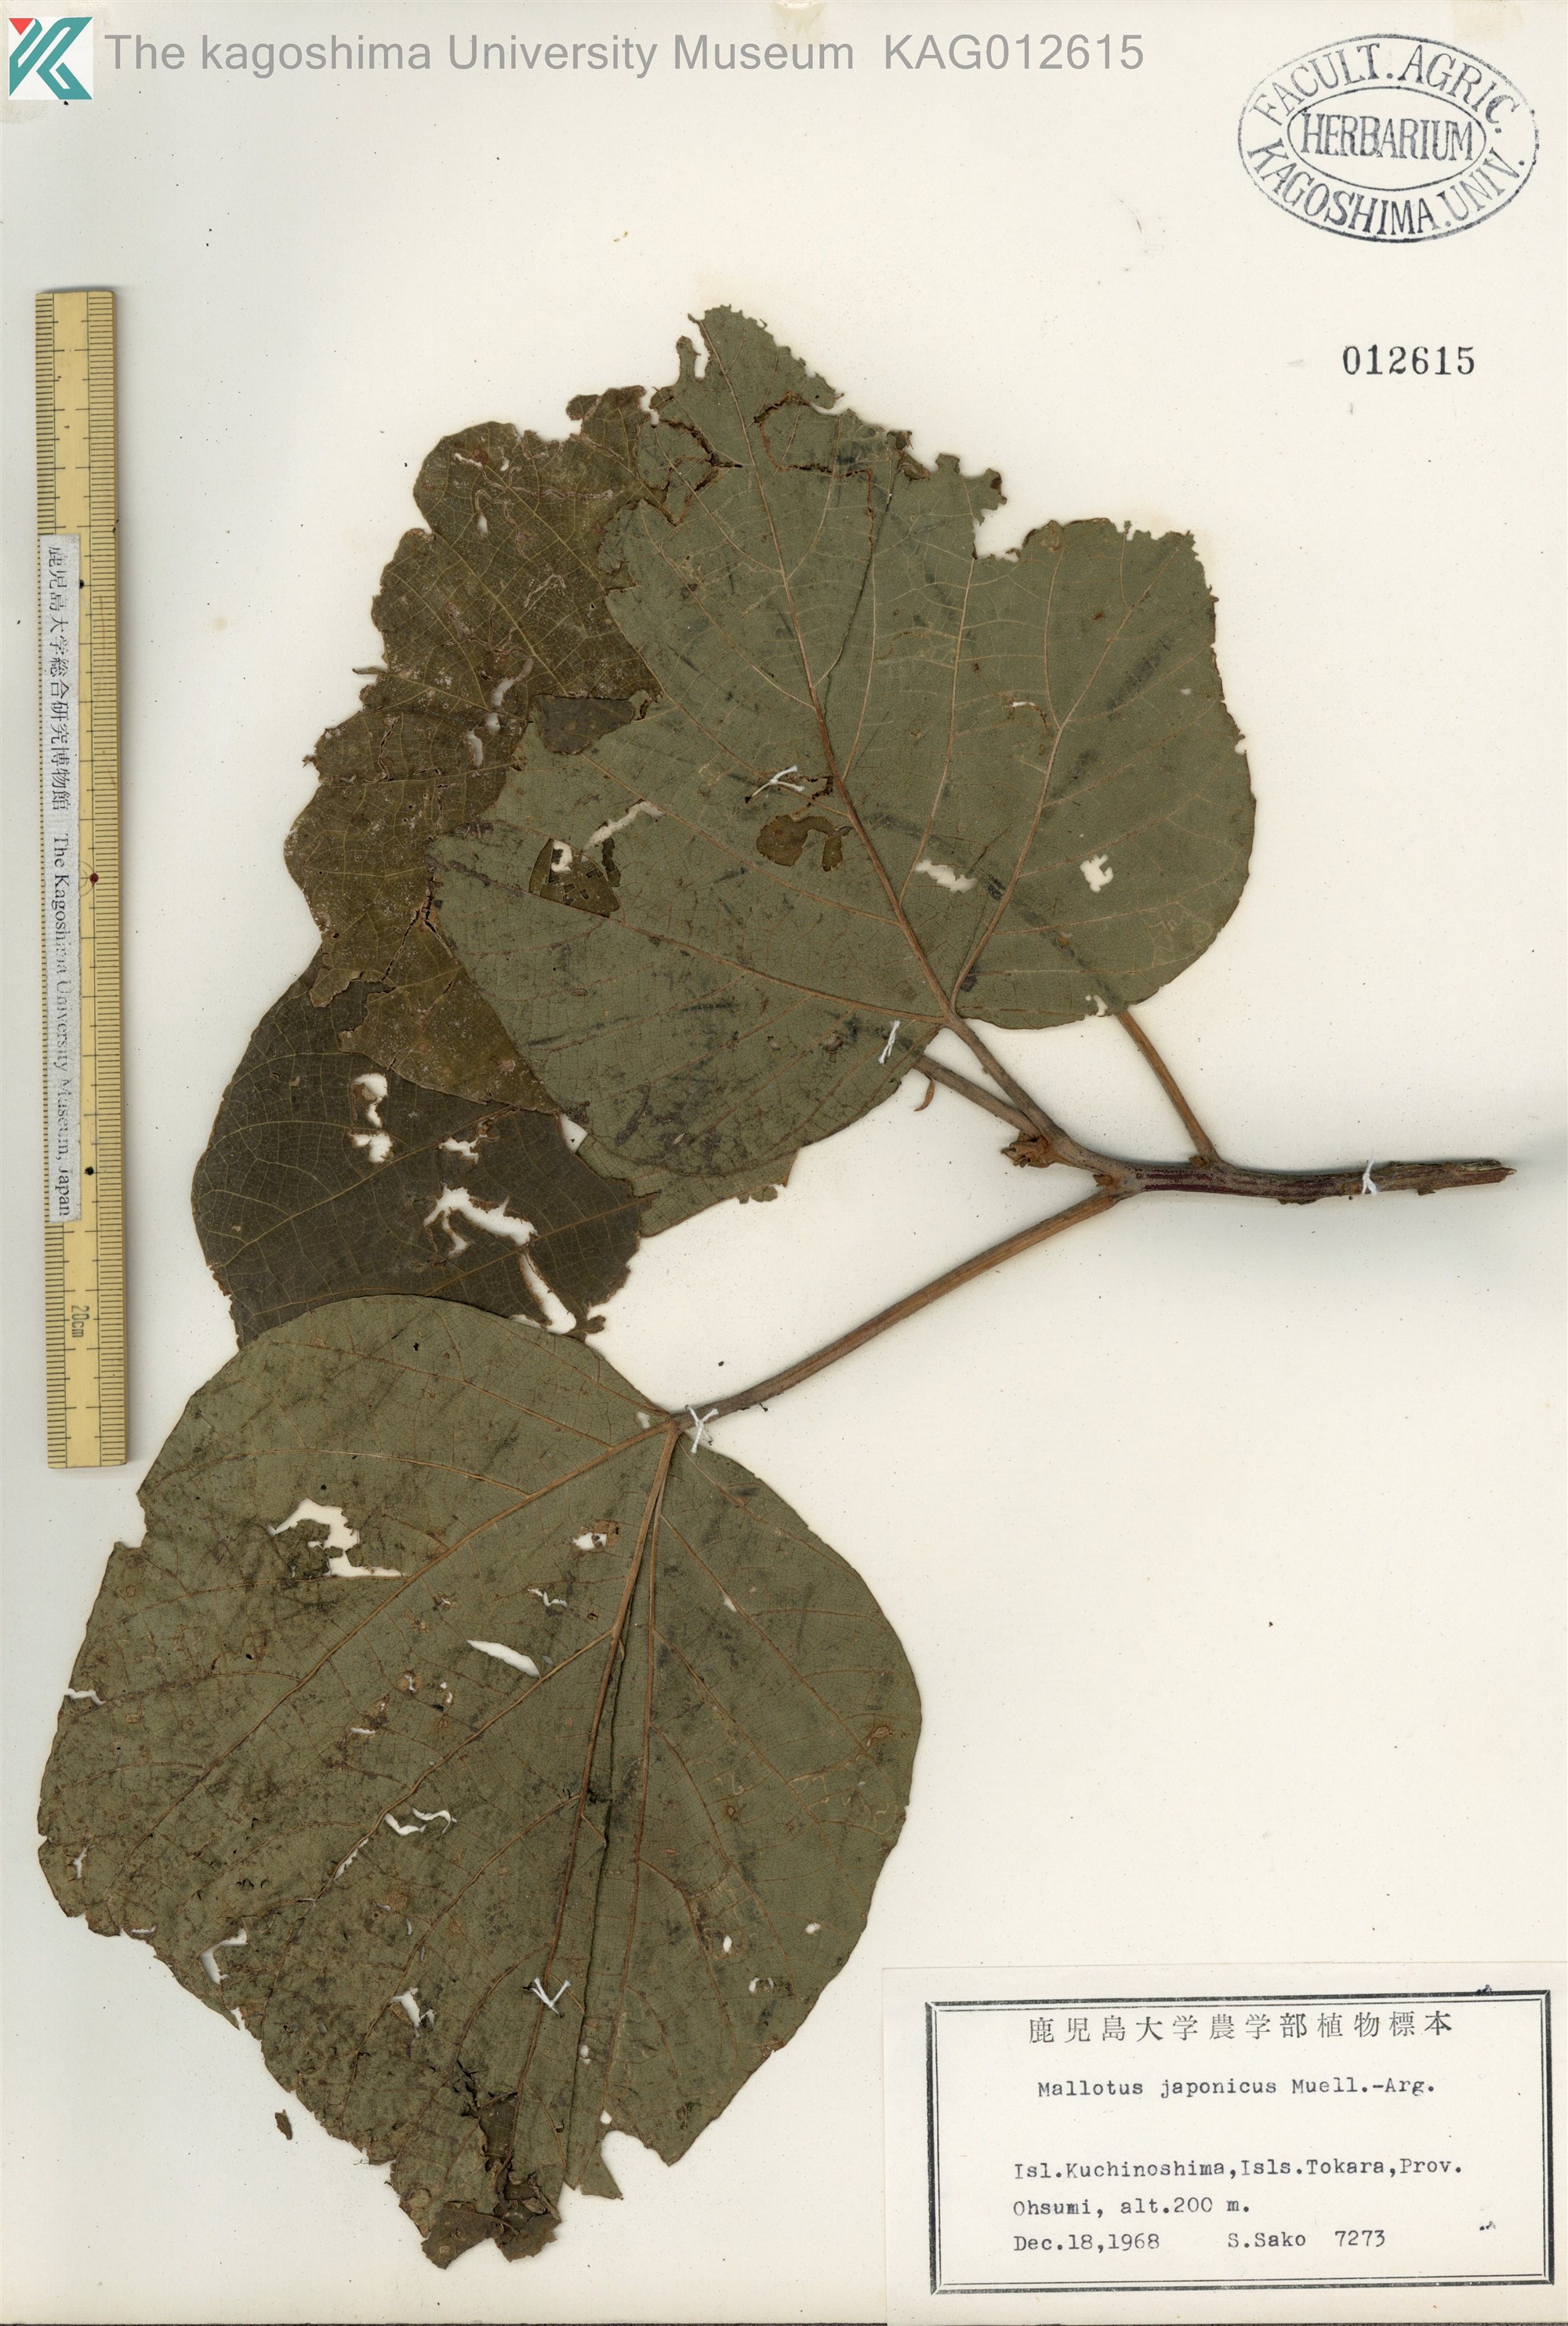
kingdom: Plantae
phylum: Tracheophyta
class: Magnoliopsida
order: Malpighiales
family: Euphorbiaceae
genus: Mallotus
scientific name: Mallotus japonicus
